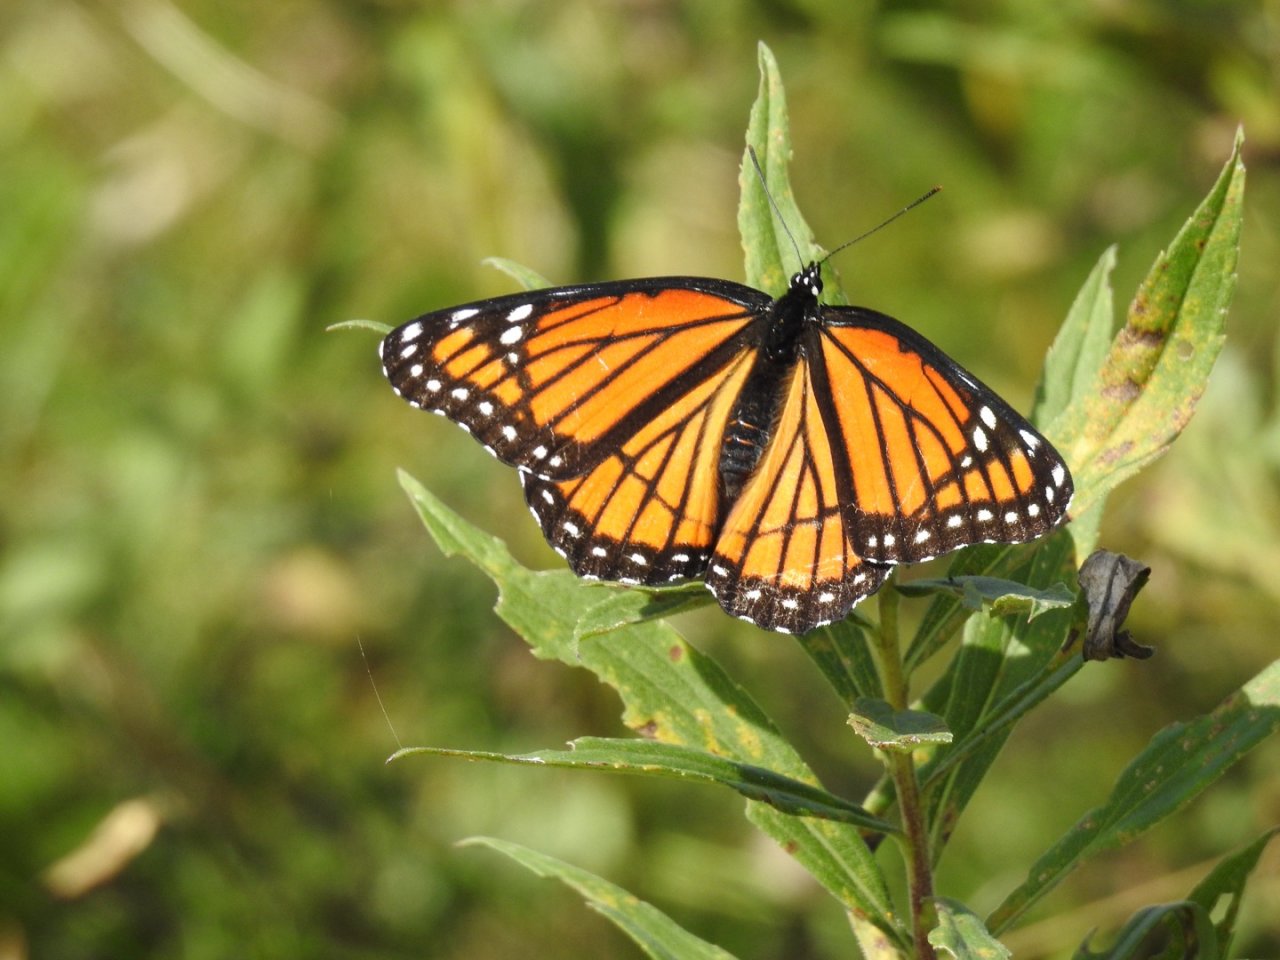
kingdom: Animalia
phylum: Arthropoda
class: Insecta
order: Lepidoptera
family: Nymphalidae
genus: Limenitis
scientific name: Limenitis archippus
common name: Viceroy
